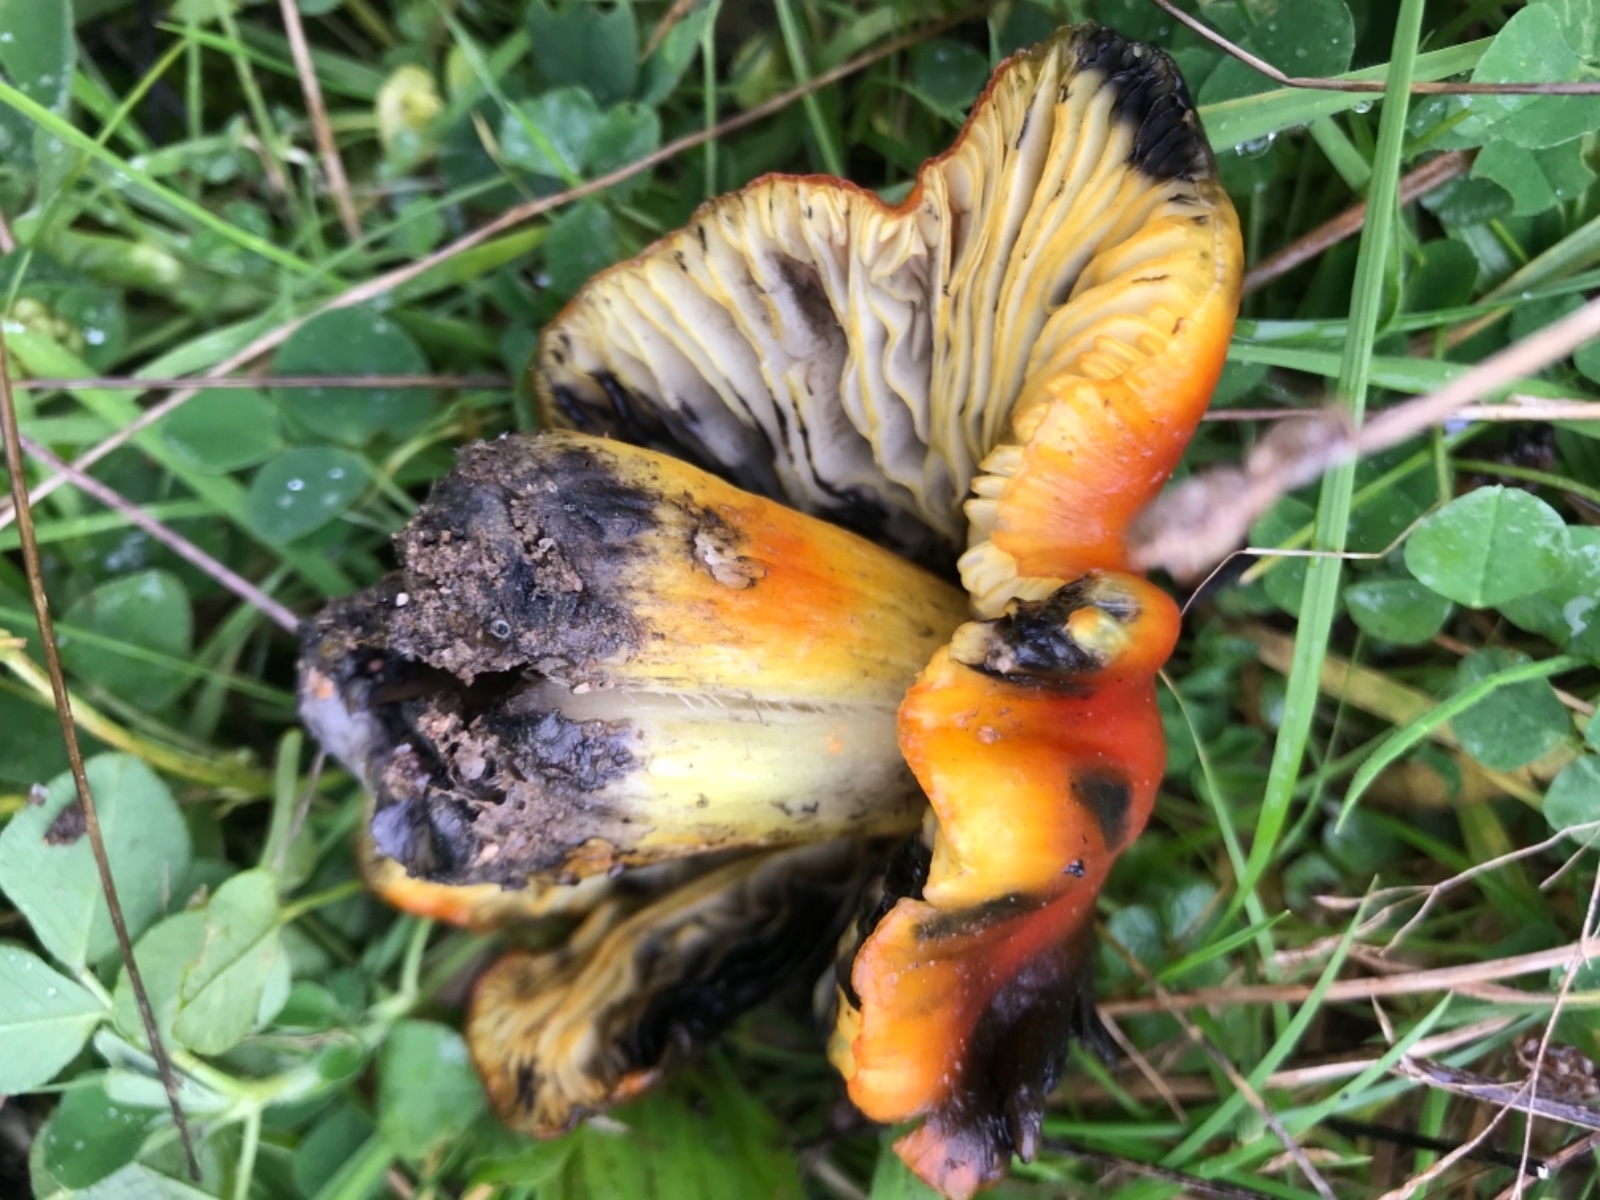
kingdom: Fungi
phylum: Basidiomycota
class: Agaricomycetes
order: Agaricales
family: Hygrophoraceae
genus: Hygrocybe
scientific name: Hygrocybe conica
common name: kegle-vokshat
